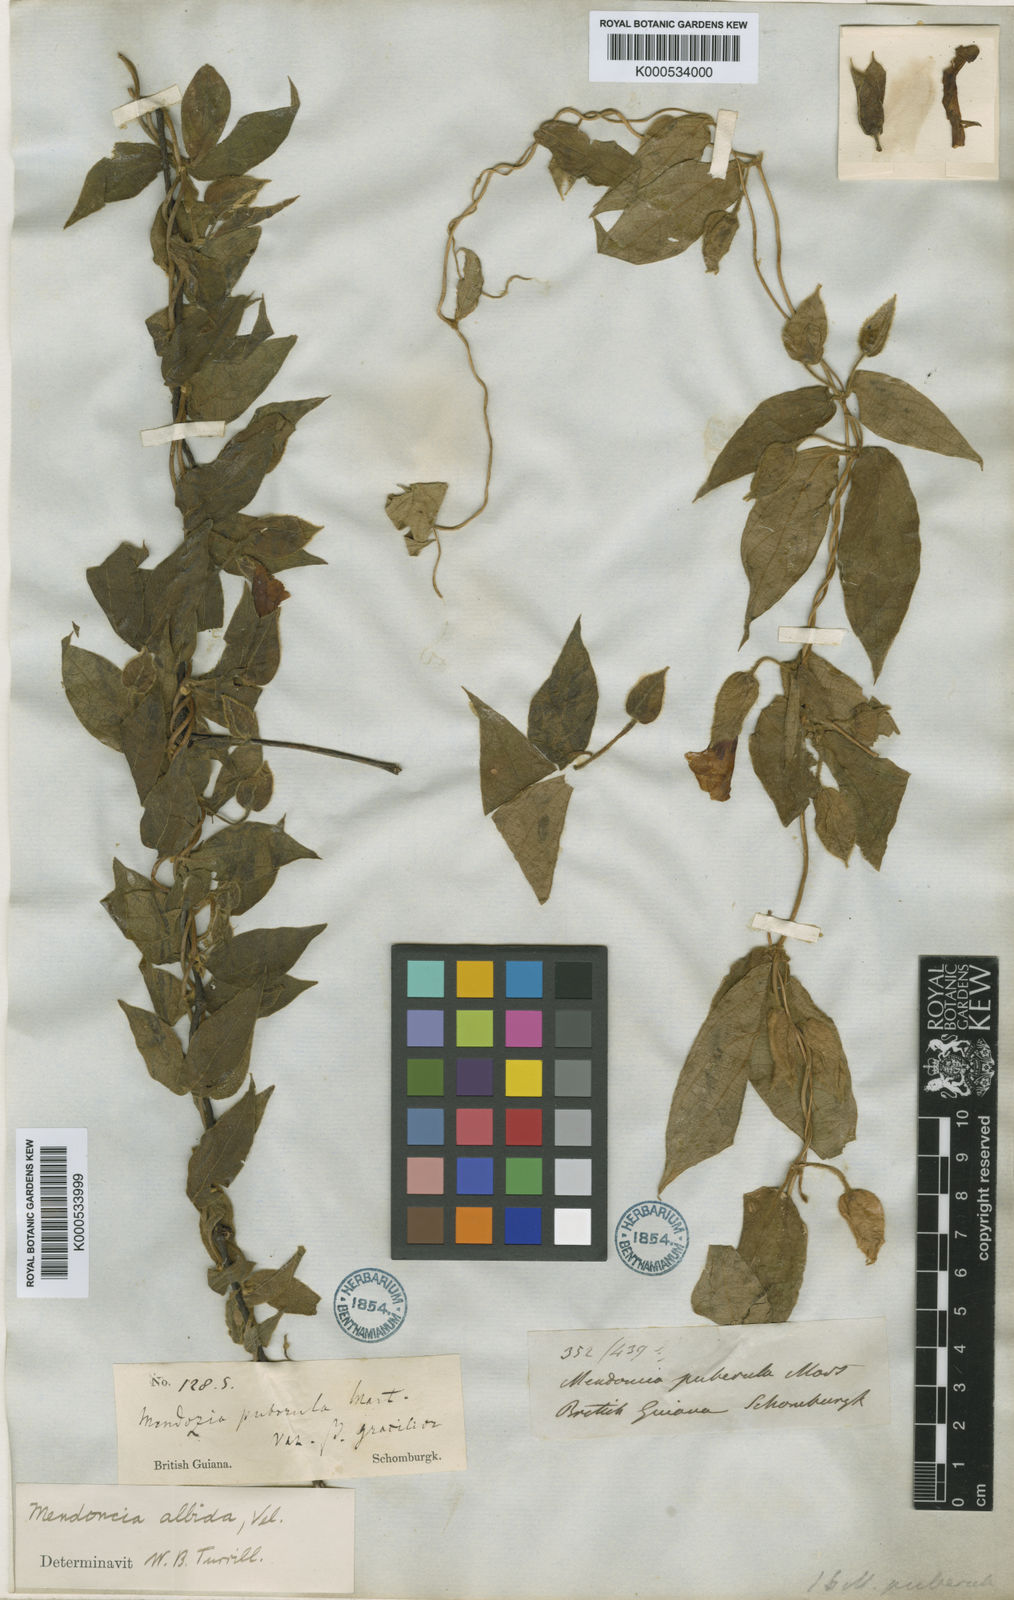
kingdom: Plantae
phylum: Tracheophyta
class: Magnoliopsida
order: Lamiales
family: Acanthaceae
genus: Mendoncia
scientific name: Mendoncia puberula
